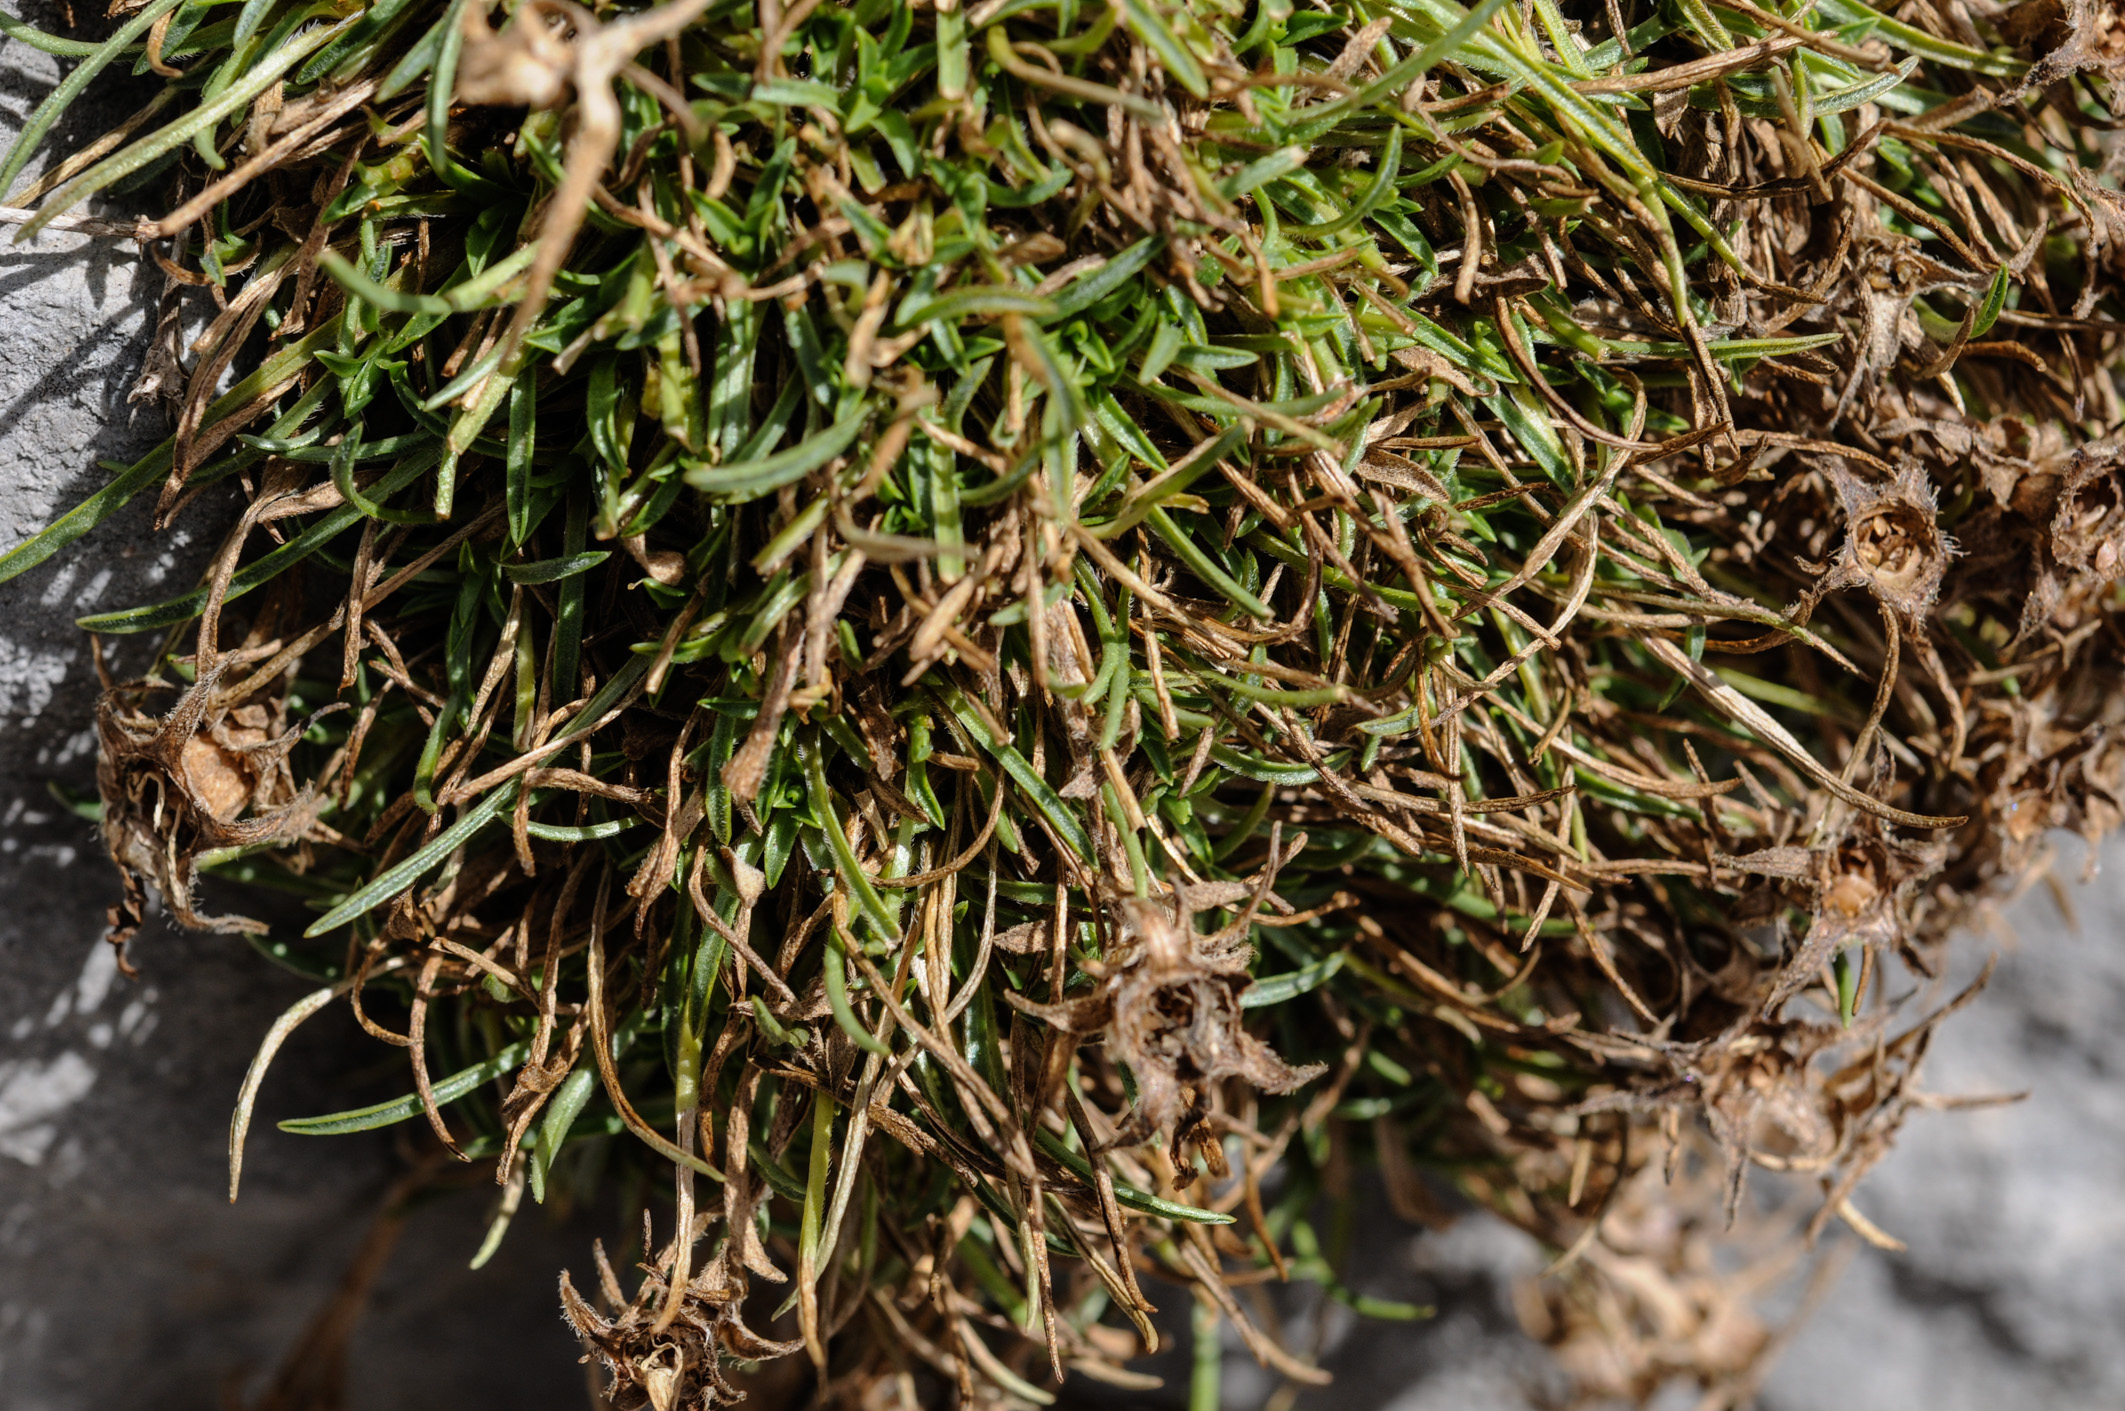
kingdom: Plantae
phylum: Tracheophyta
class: Magnoliopsida
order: Asterales
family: Campanulaceae
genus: Edraianthus
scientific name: Edraianthus graminifolius
